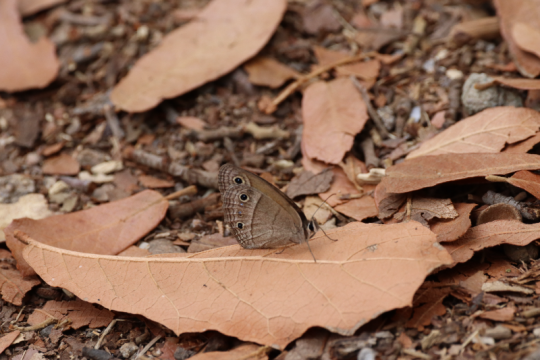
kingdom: Animalia
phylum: Arthropoda
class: Insecta
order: Lepidoptera
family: Nymphalidae
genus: Euptychia
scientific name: Euptychia rubricata
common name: Red Satyr
